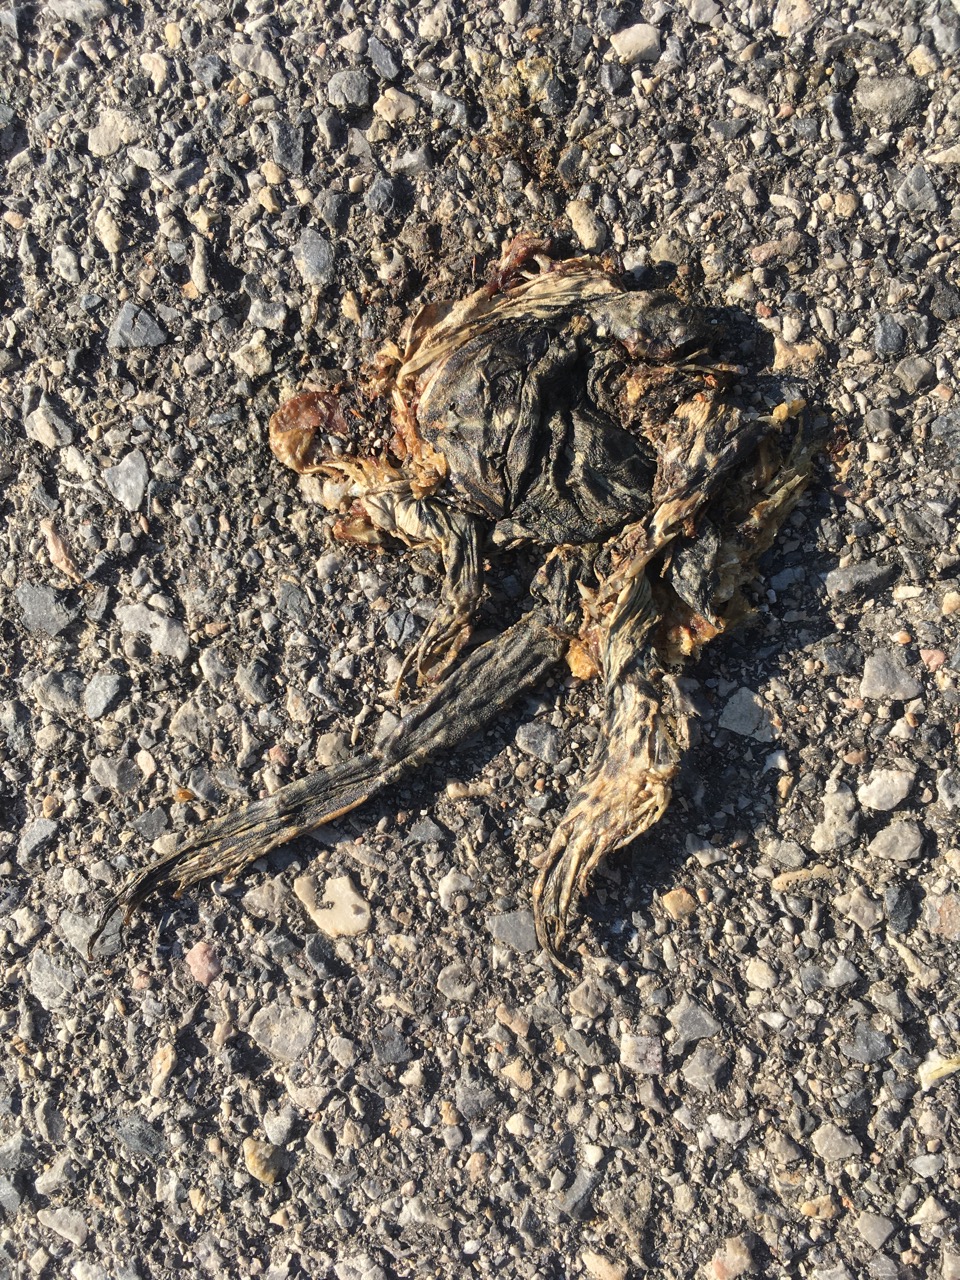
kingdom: Animalia
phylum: Chordata
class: Amphibia
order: Anura
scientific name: Anura
